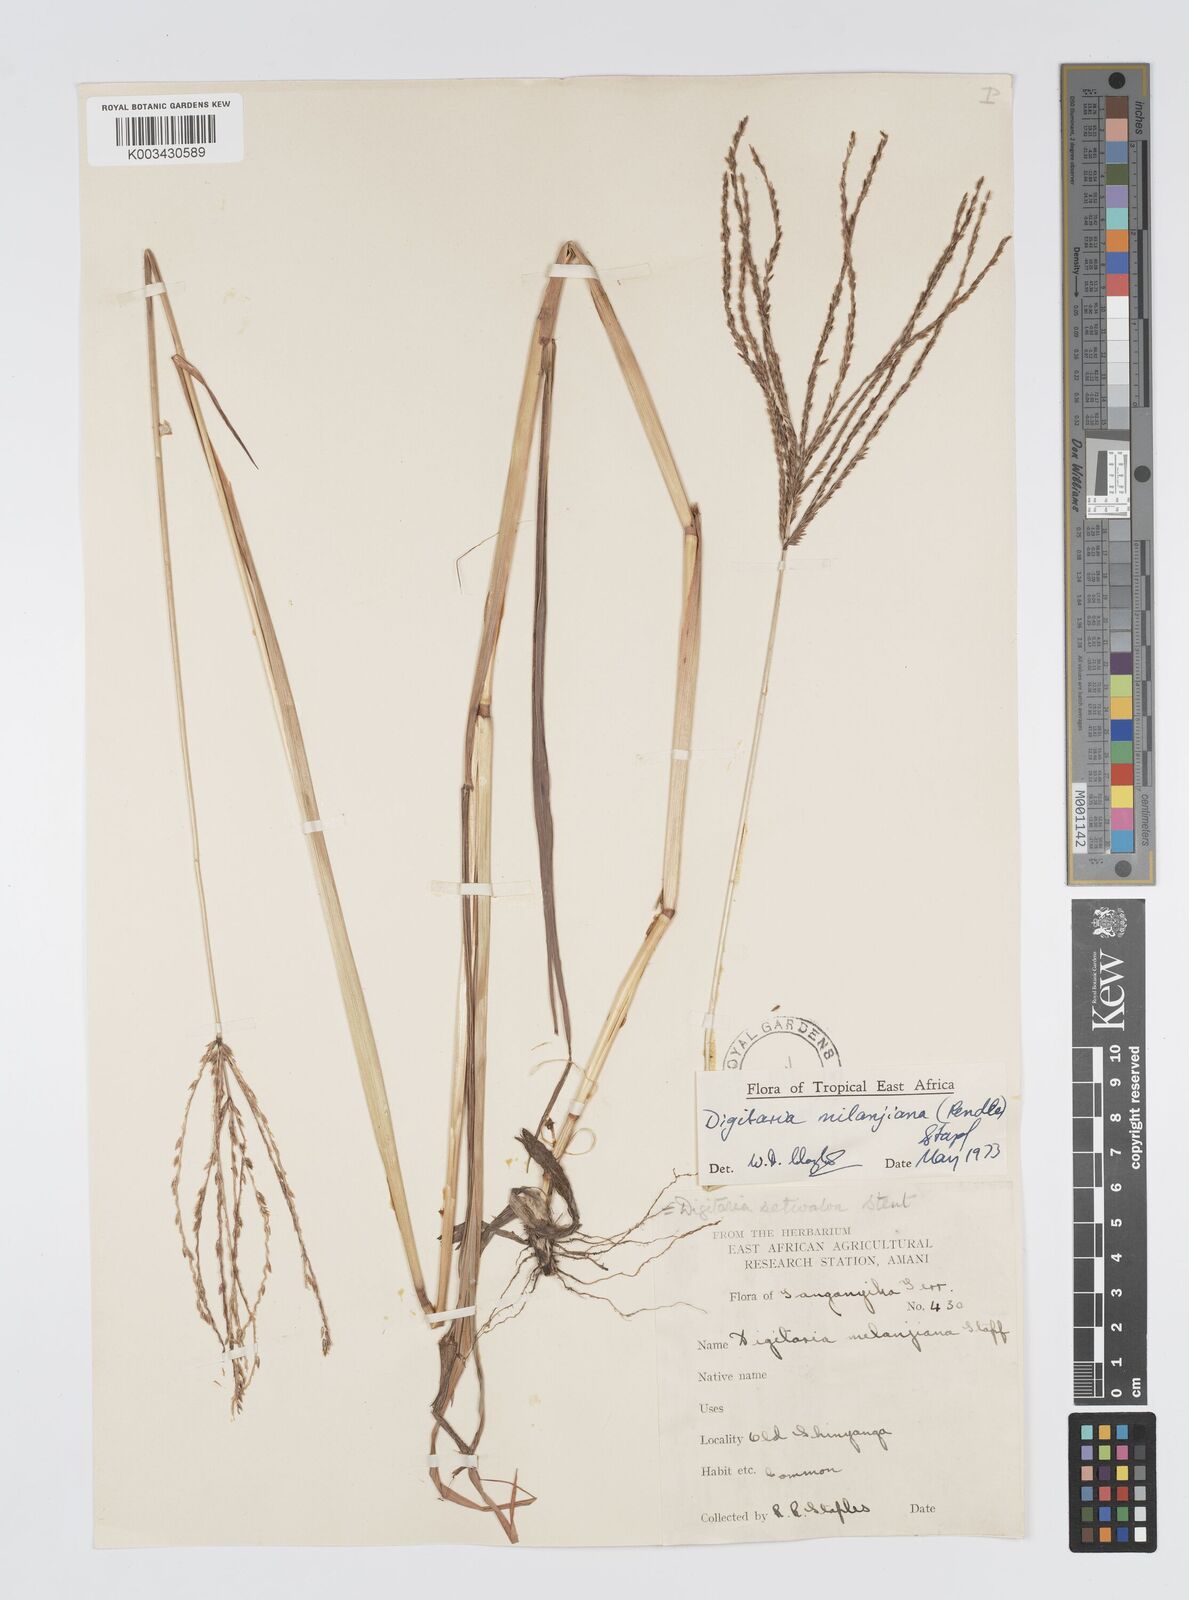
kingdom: Plantae
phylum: Tracheophyta
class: Liliopsida
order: Poales
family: Poaceae
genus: Digitaria
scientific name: Digitaria milanjiana
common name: Madagascar crabgrass
